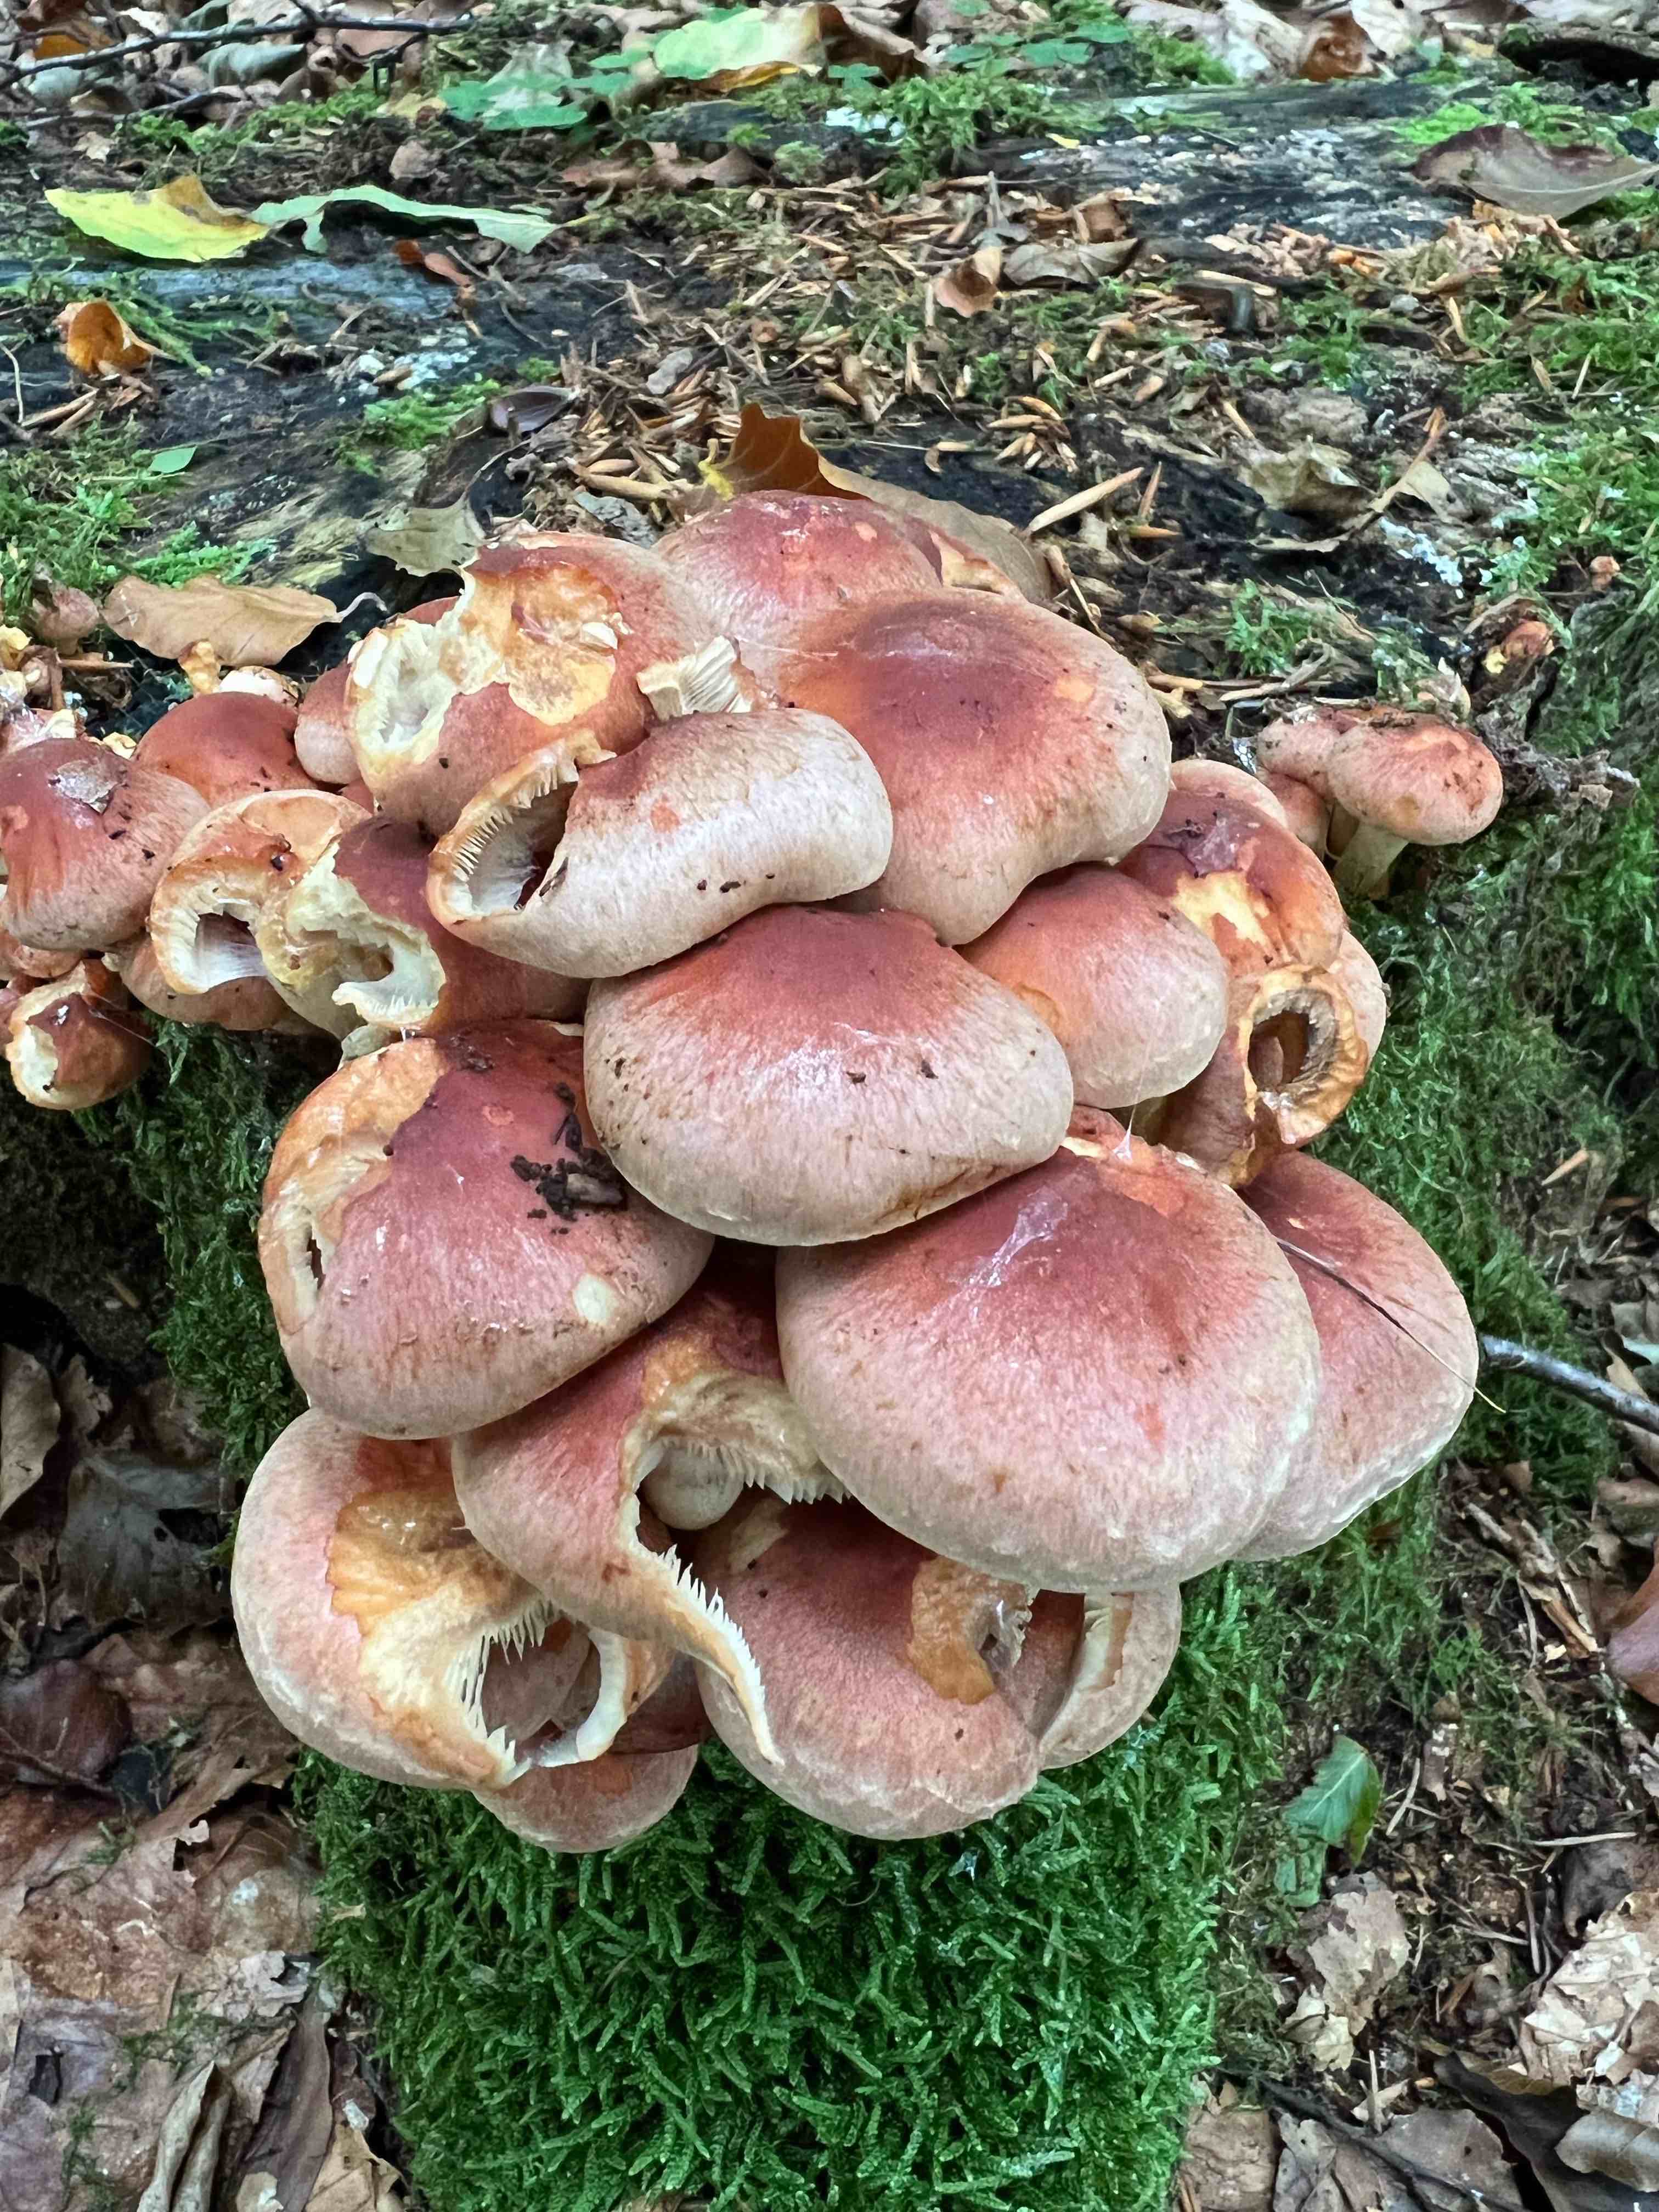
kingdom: Fungi
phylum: Basidiomycota
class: Agaricomycetes
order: Agaricales
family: Strophariaceae
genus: Hypholoma
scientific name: Hypholoma lateritium
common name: teglrød svovlhat
